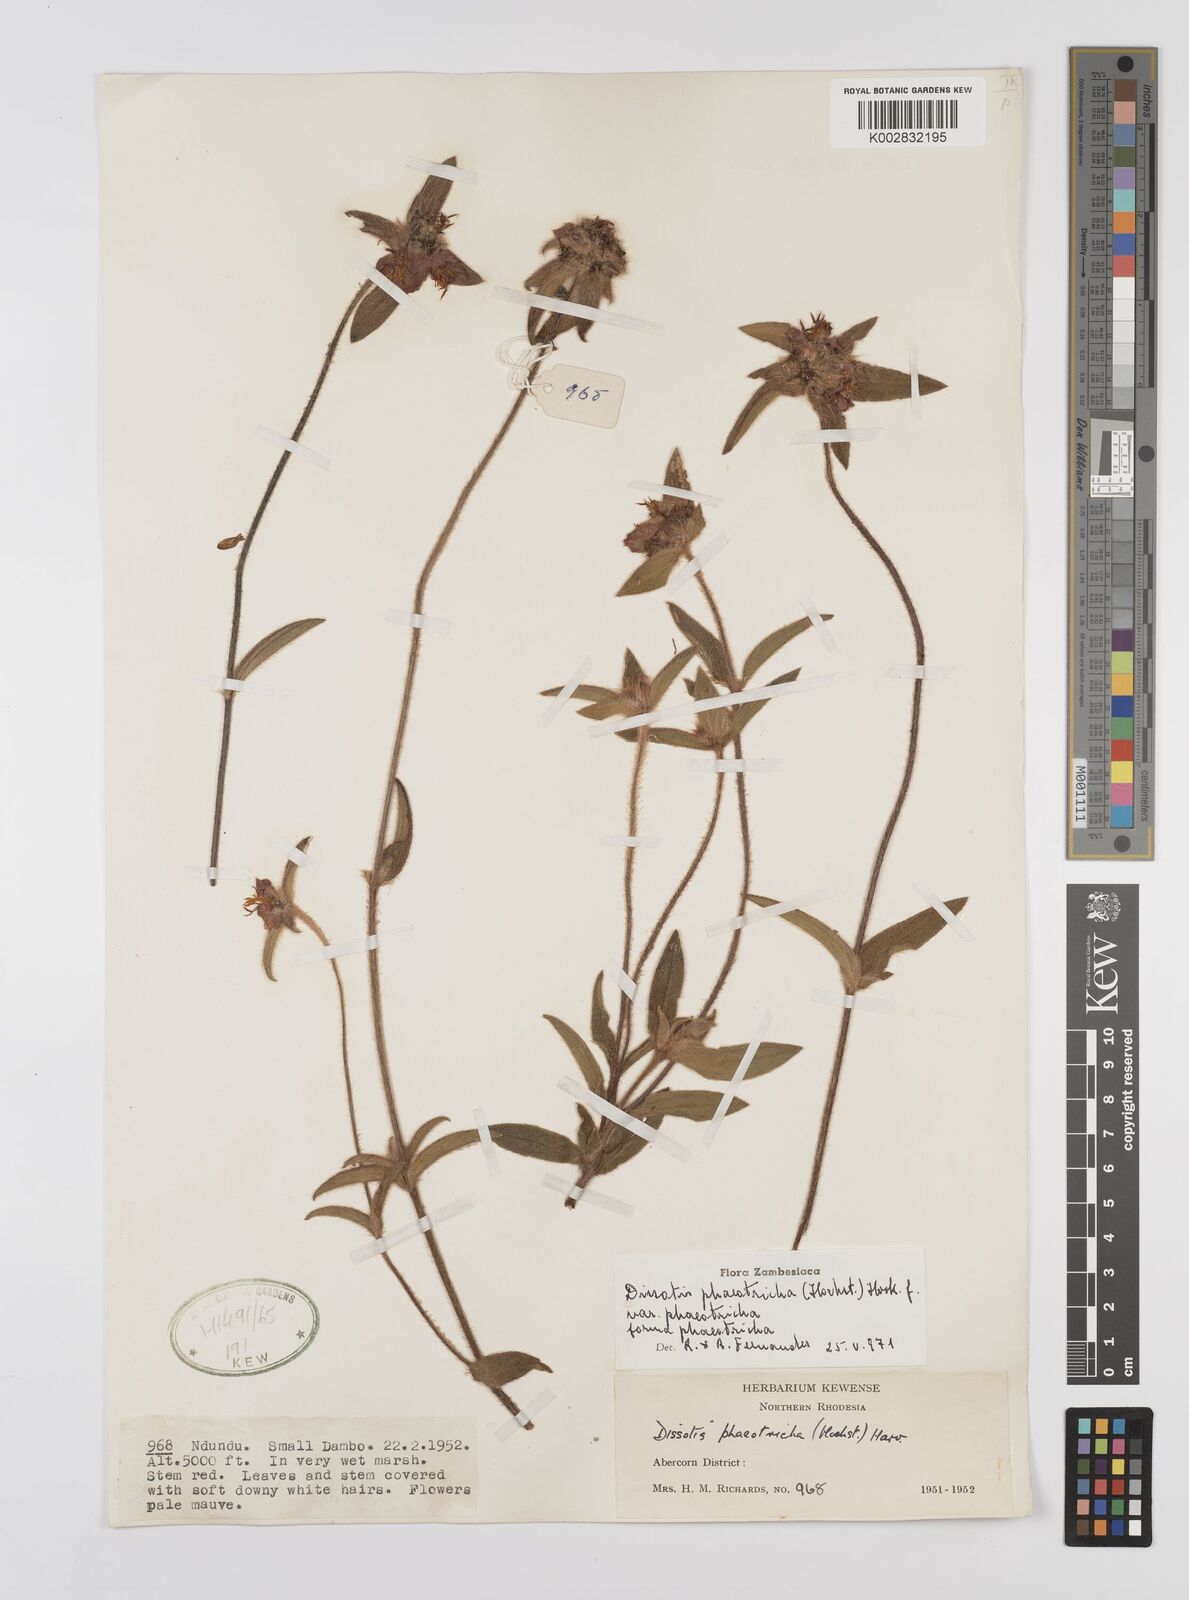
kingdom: Plantae
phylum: Tracheophyta
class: Magnoliopsida
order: Myrtales
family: Melastomataceae
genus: Antherotoma
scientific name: Antherotoma phaeotricha
